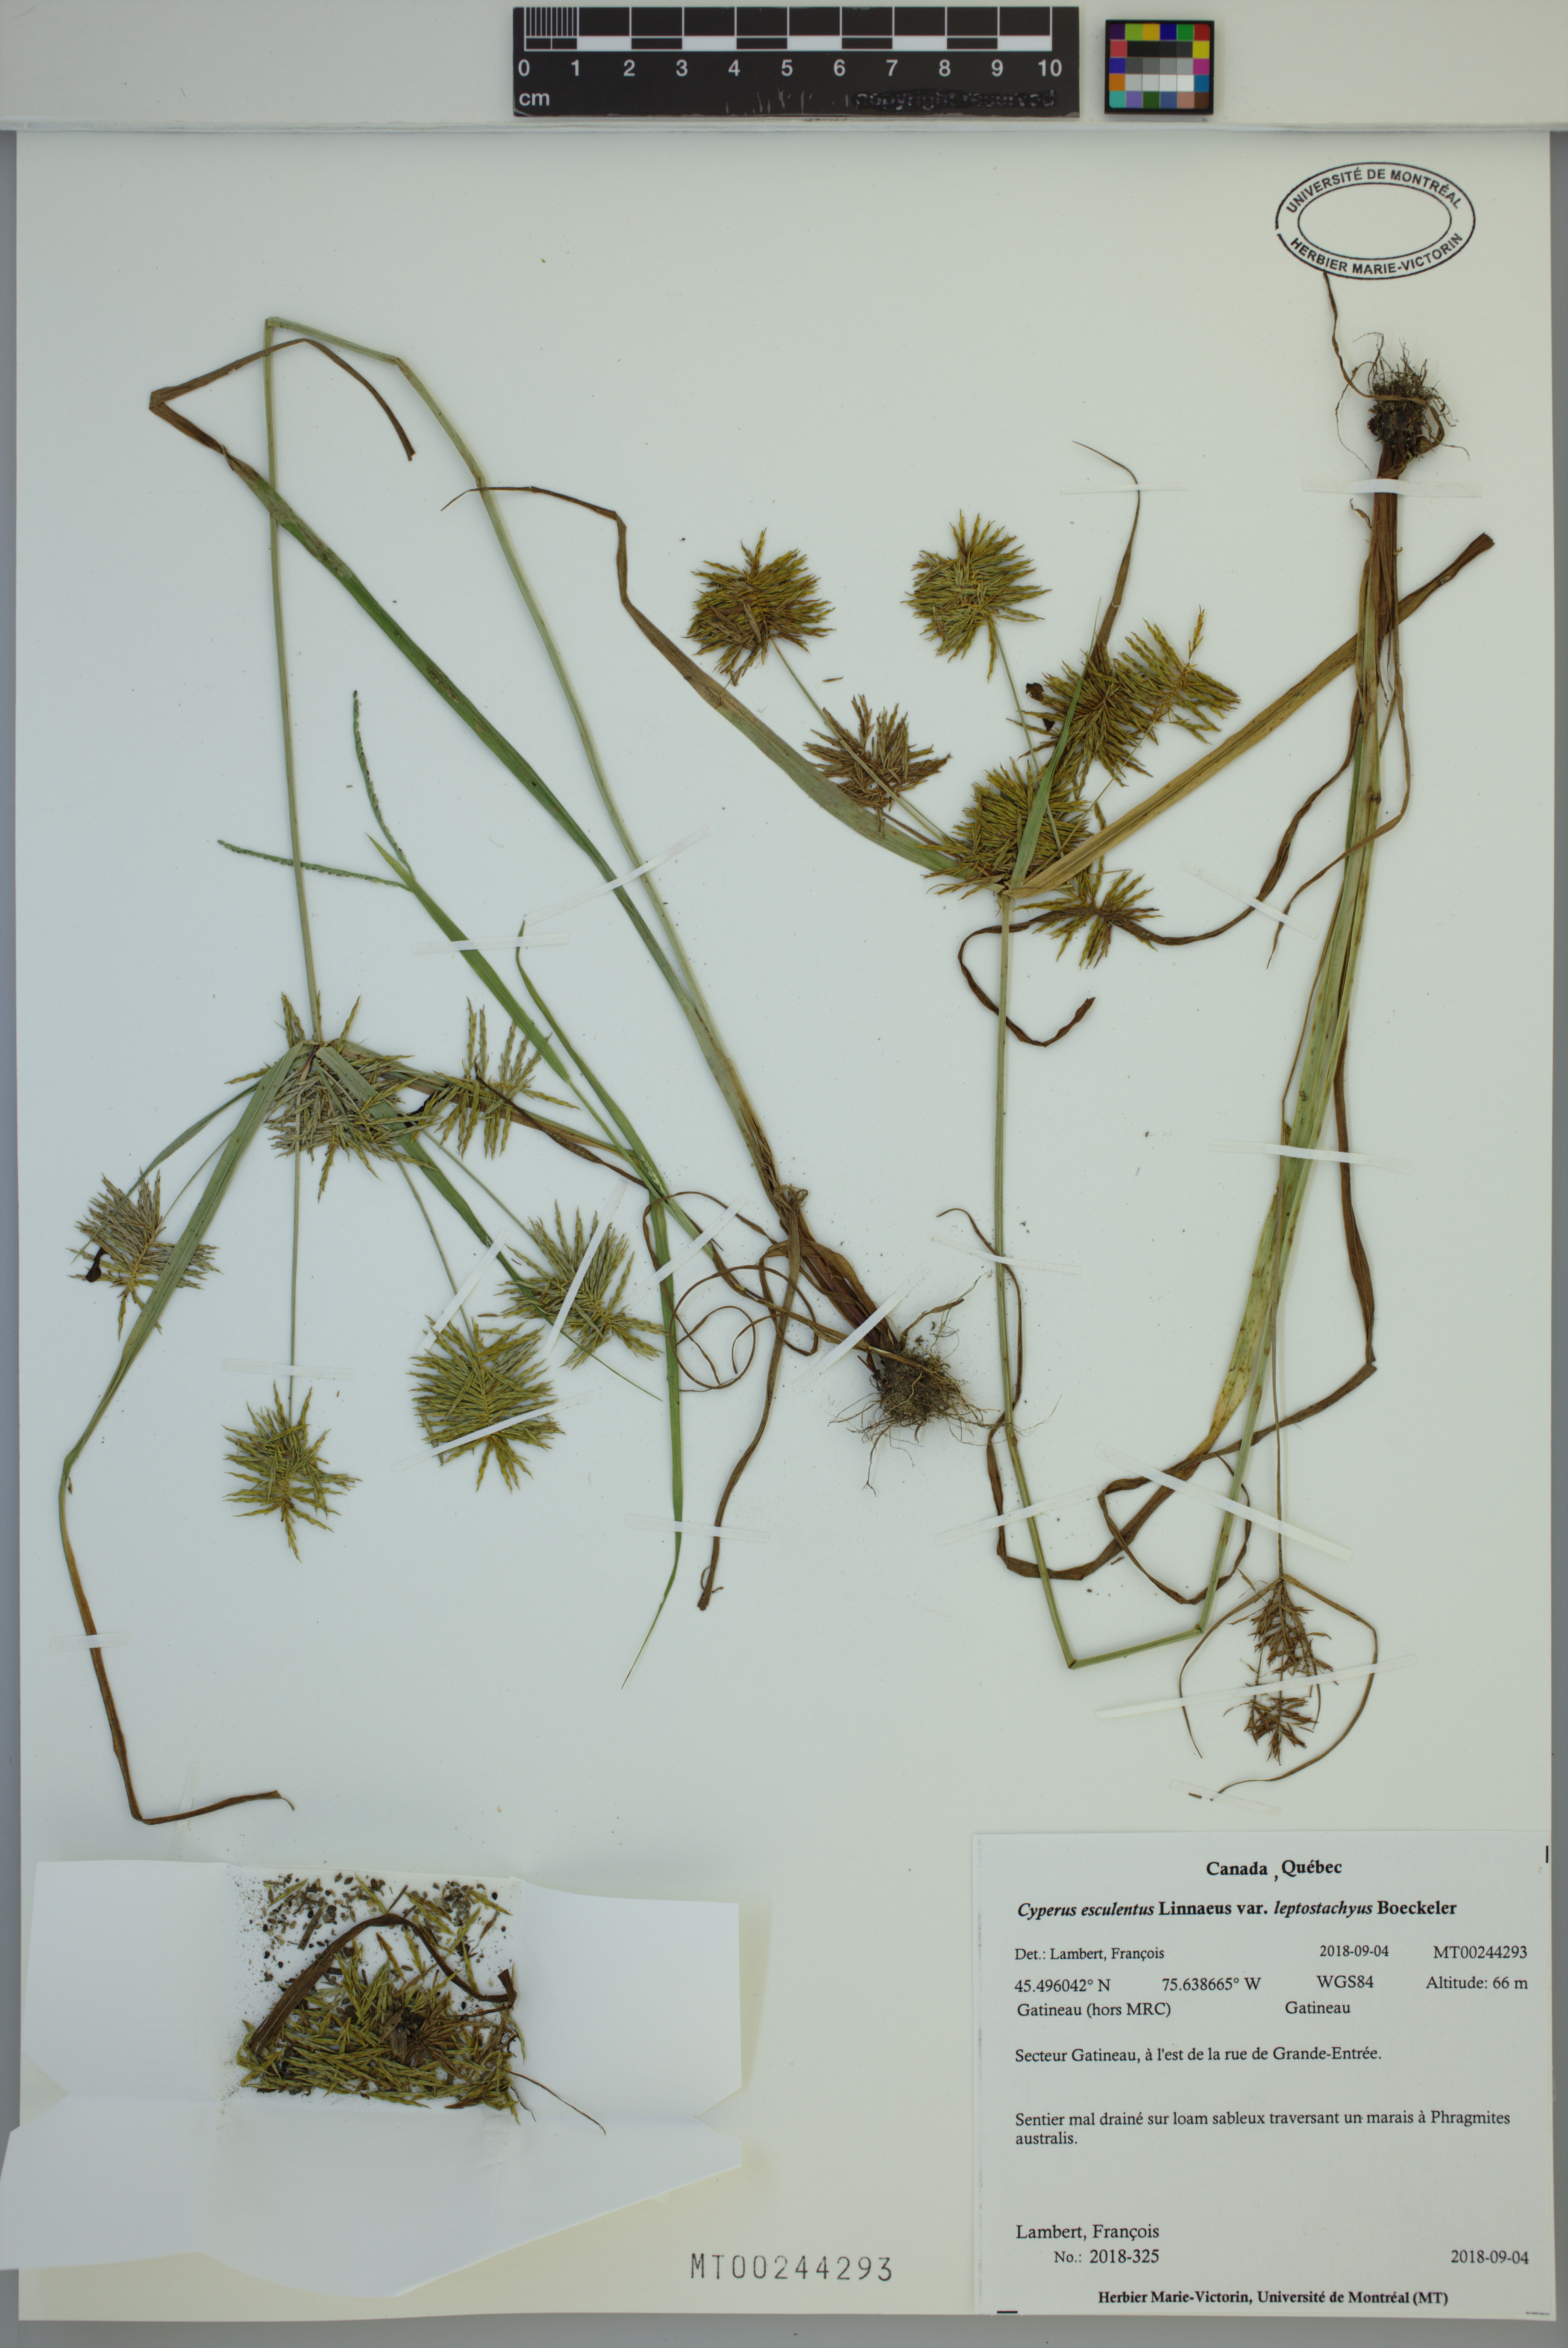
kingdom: Plantae
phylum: Tracheophyta
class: Liliopsida
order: Poales
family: Cyperaceae
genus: Cyperus
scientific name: Cyperus esculentus
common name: Yellow nutsedge
